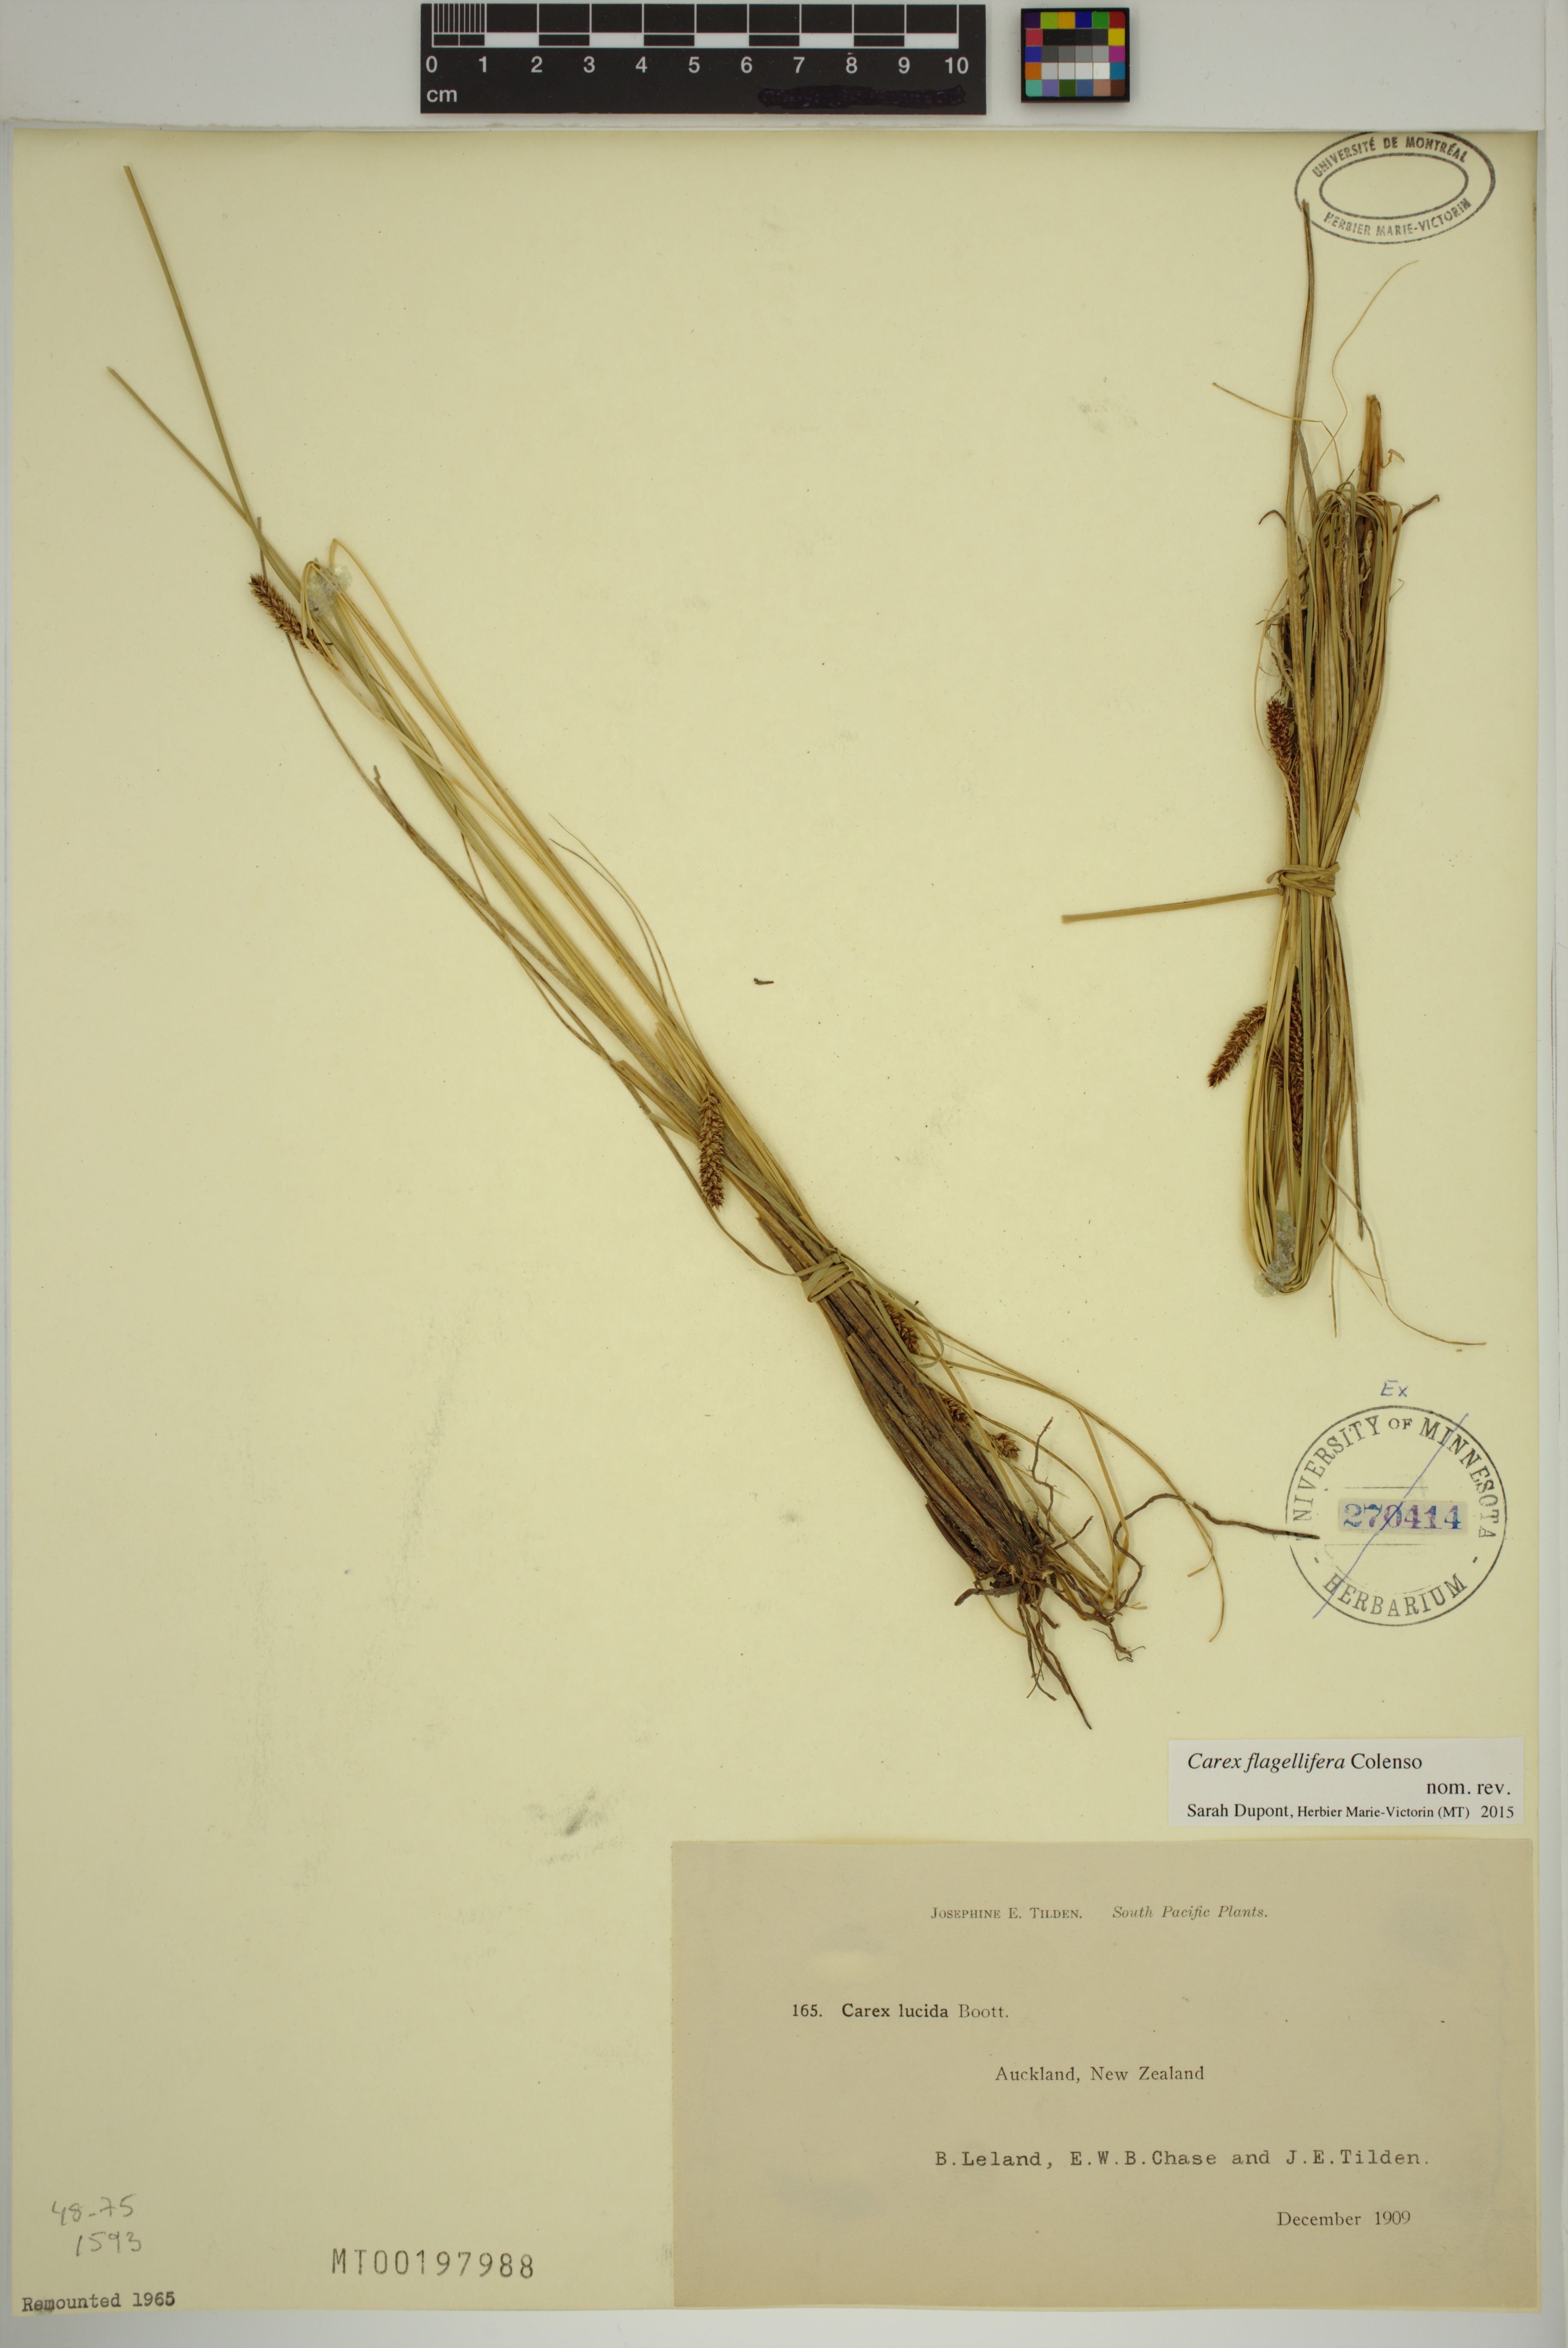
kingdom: Plantae
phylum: Tracheophyta
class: Liliopsida
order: Poales
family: Cyperaceae
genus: Carex
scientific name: Carex flagellifera
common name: Glen murray tussock
